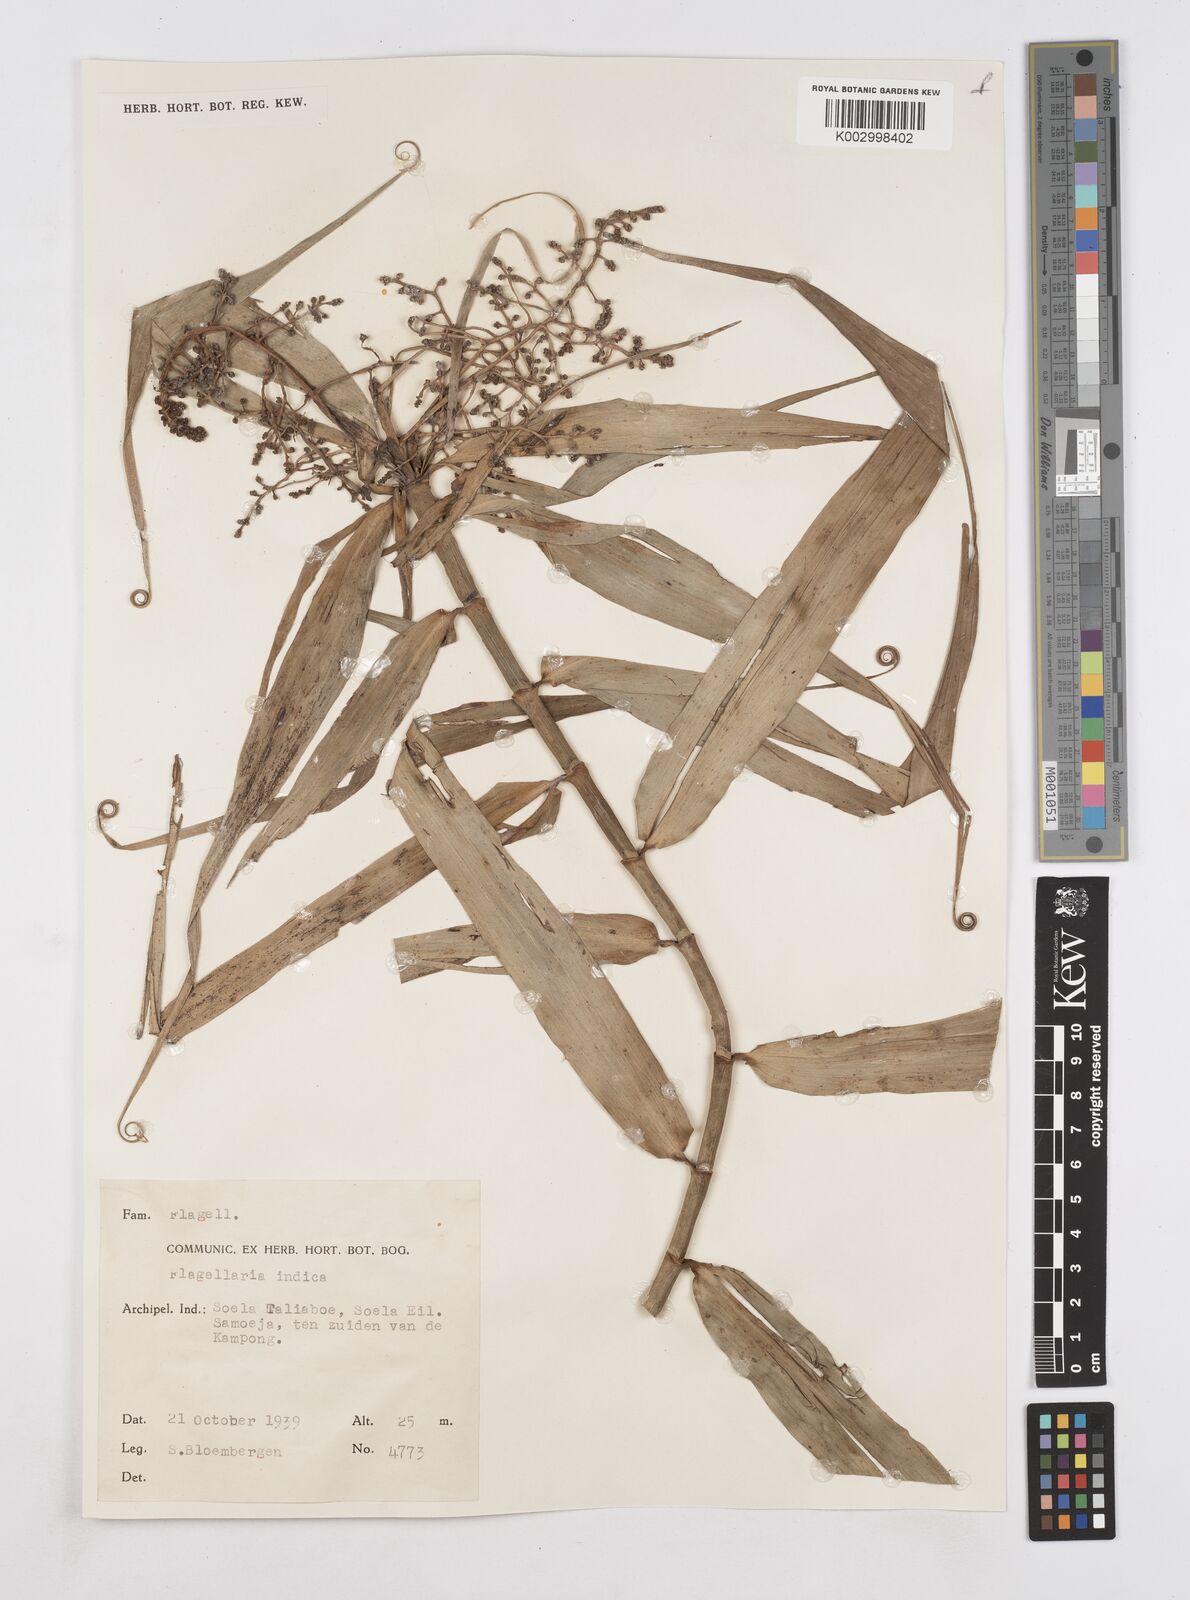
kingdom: Plantae
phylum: Tracheophyta
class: Liliopsida
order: Poales
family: Flagellariaceae
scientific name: Flagellariaceae
